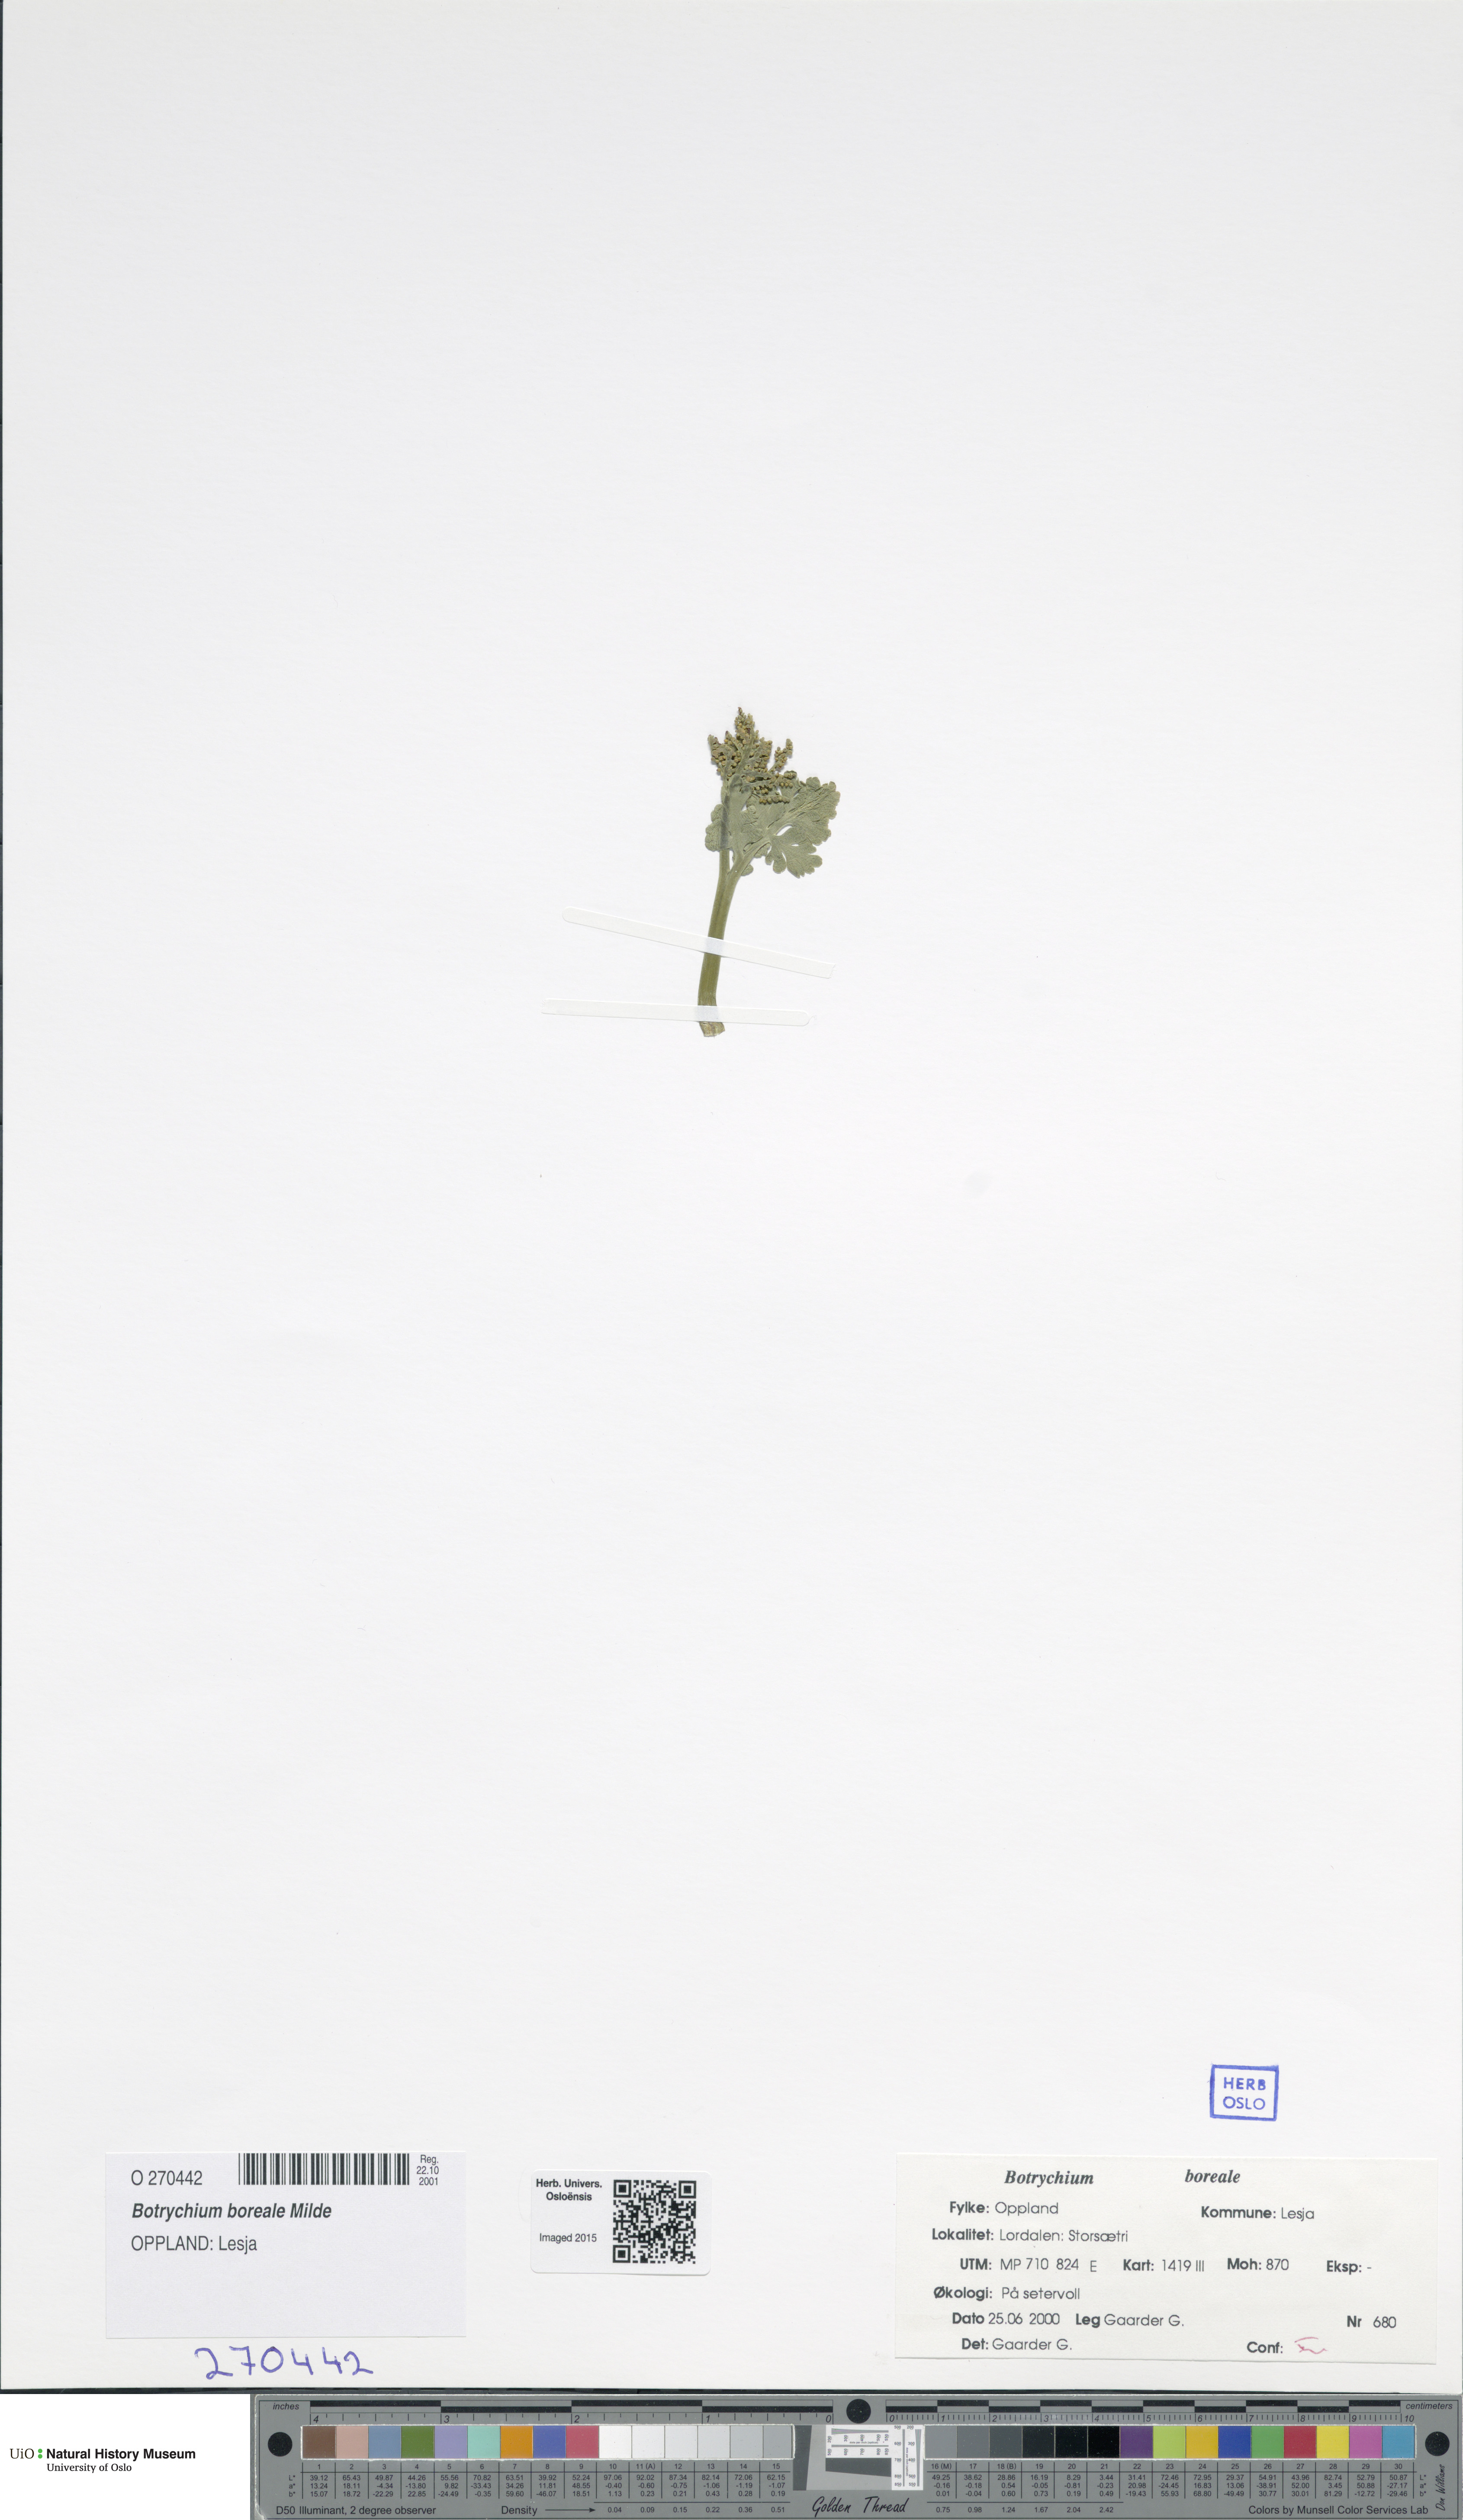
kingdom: Plantae
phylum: Tracheophyta
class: Polypodiopsida
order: Ophioglossales
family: Ophioglossaceae
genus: Botrychium
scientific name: Botrychium boreale
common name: Boreal moonwort
